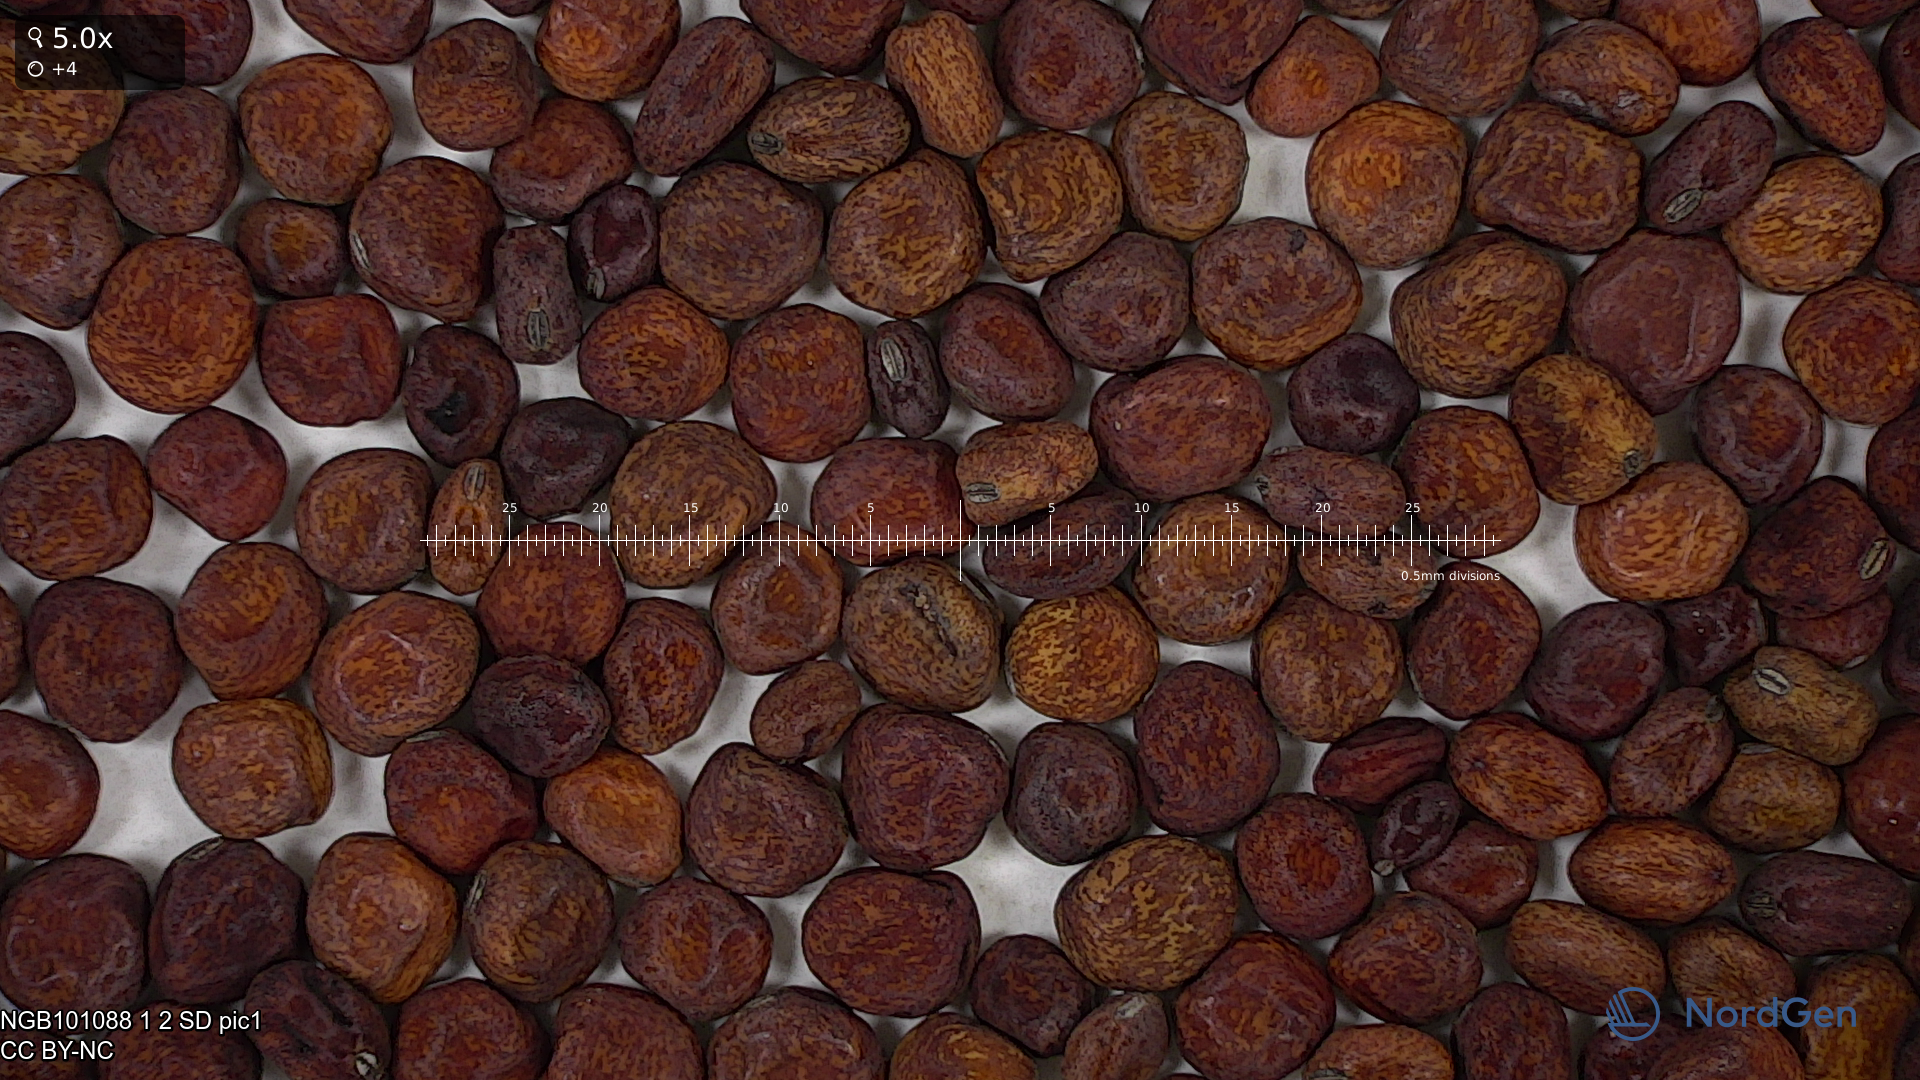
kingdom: Plantae
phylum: Tracheophyta
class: Magnoliopsida
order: Fabales
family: Fabaceae
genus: Lathyrus
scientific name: Lathyrus oleraceus
